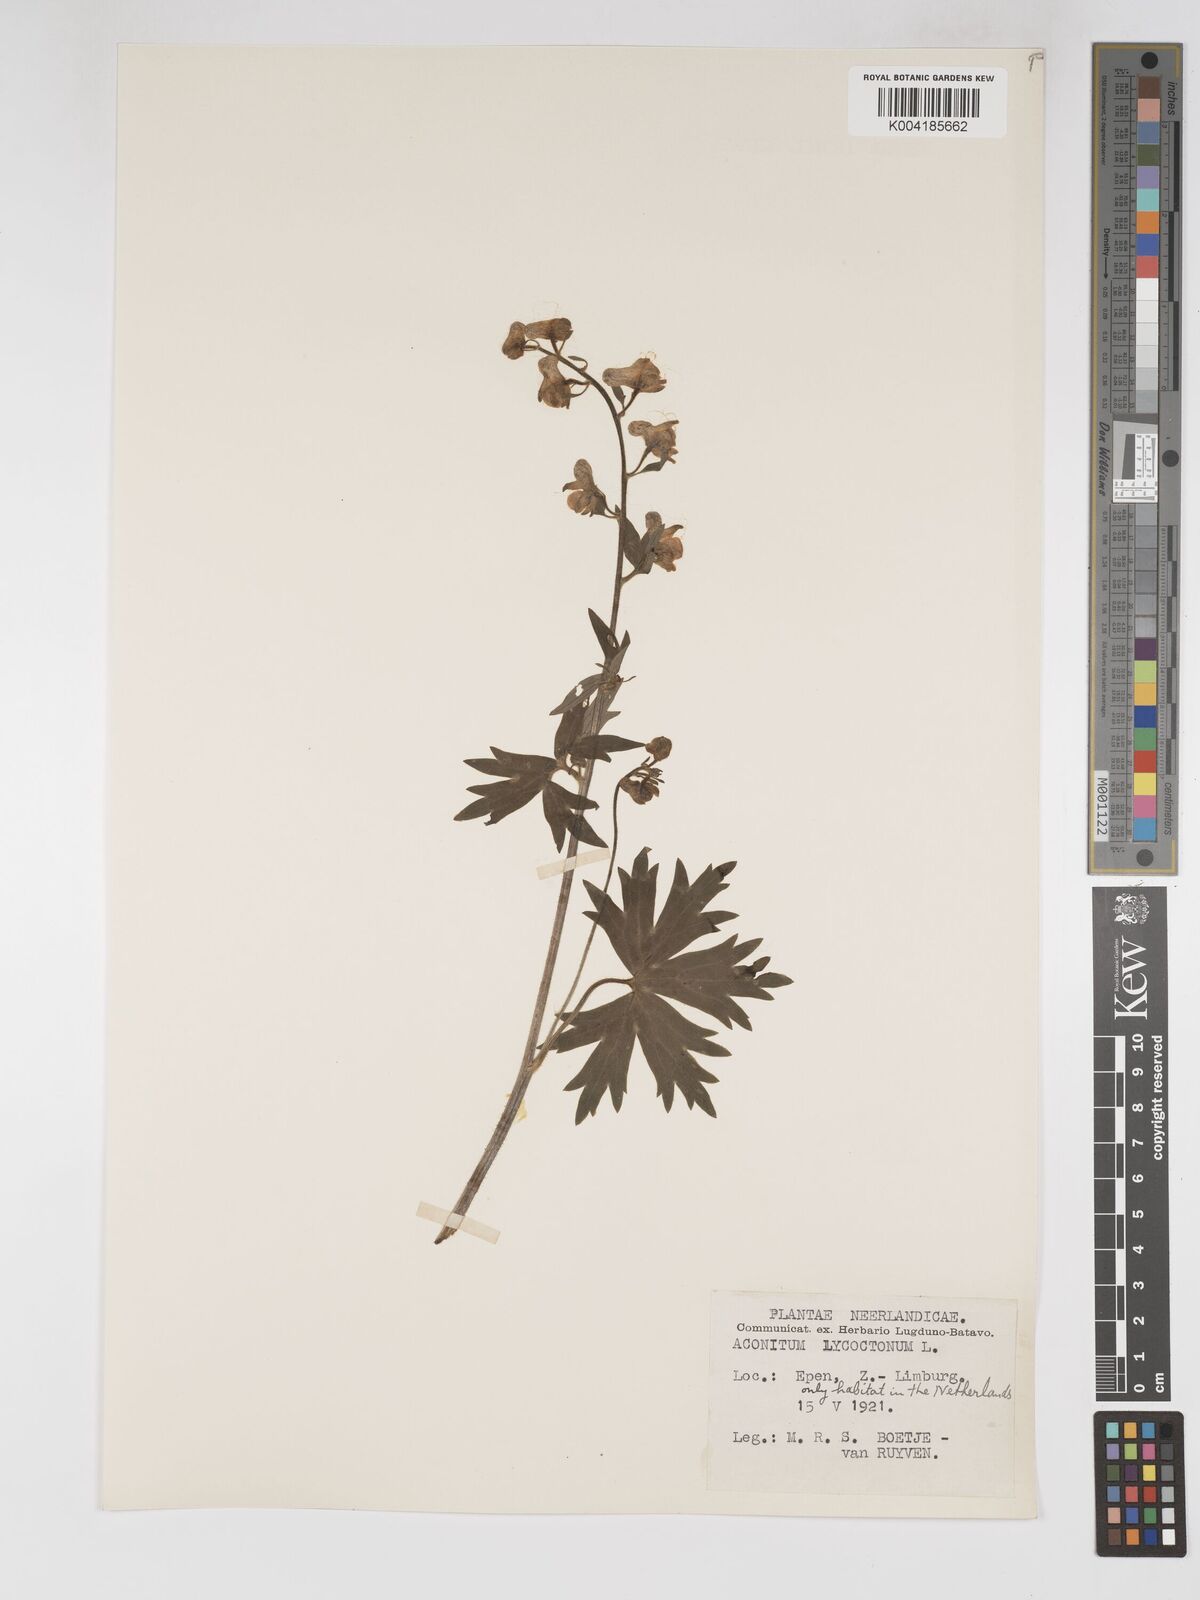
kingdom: Plantae
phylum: Tracheophyta
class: Magnoliopsida
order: Ranunculales
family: Ranunculaceae
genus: Aconitum
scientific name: Aconitum lycoctonum
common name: Wolf's-bane
